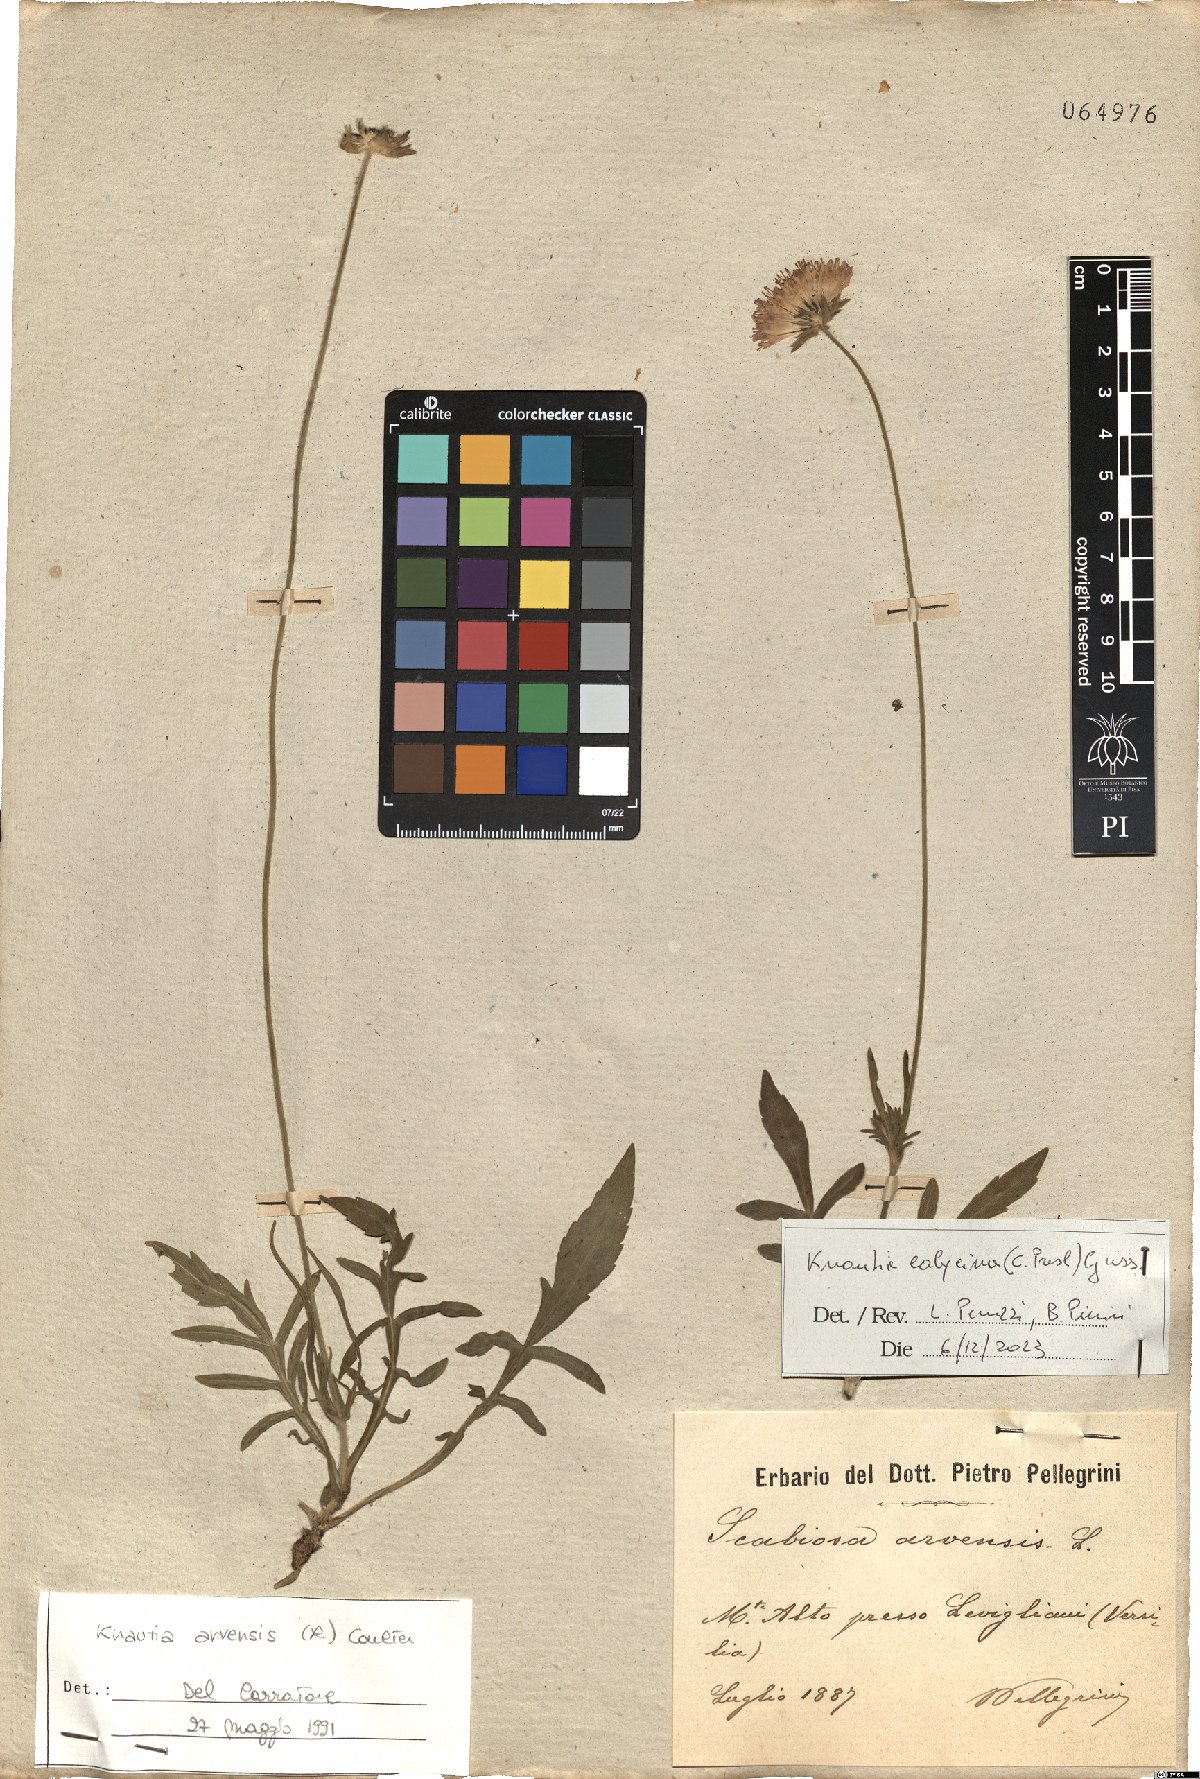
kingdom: Plantae
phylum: Tracheophyta
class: Magnoliopsida
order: Dipsacales
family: Caprifoliaceae
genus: Knautia
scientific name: Knautia calycina
